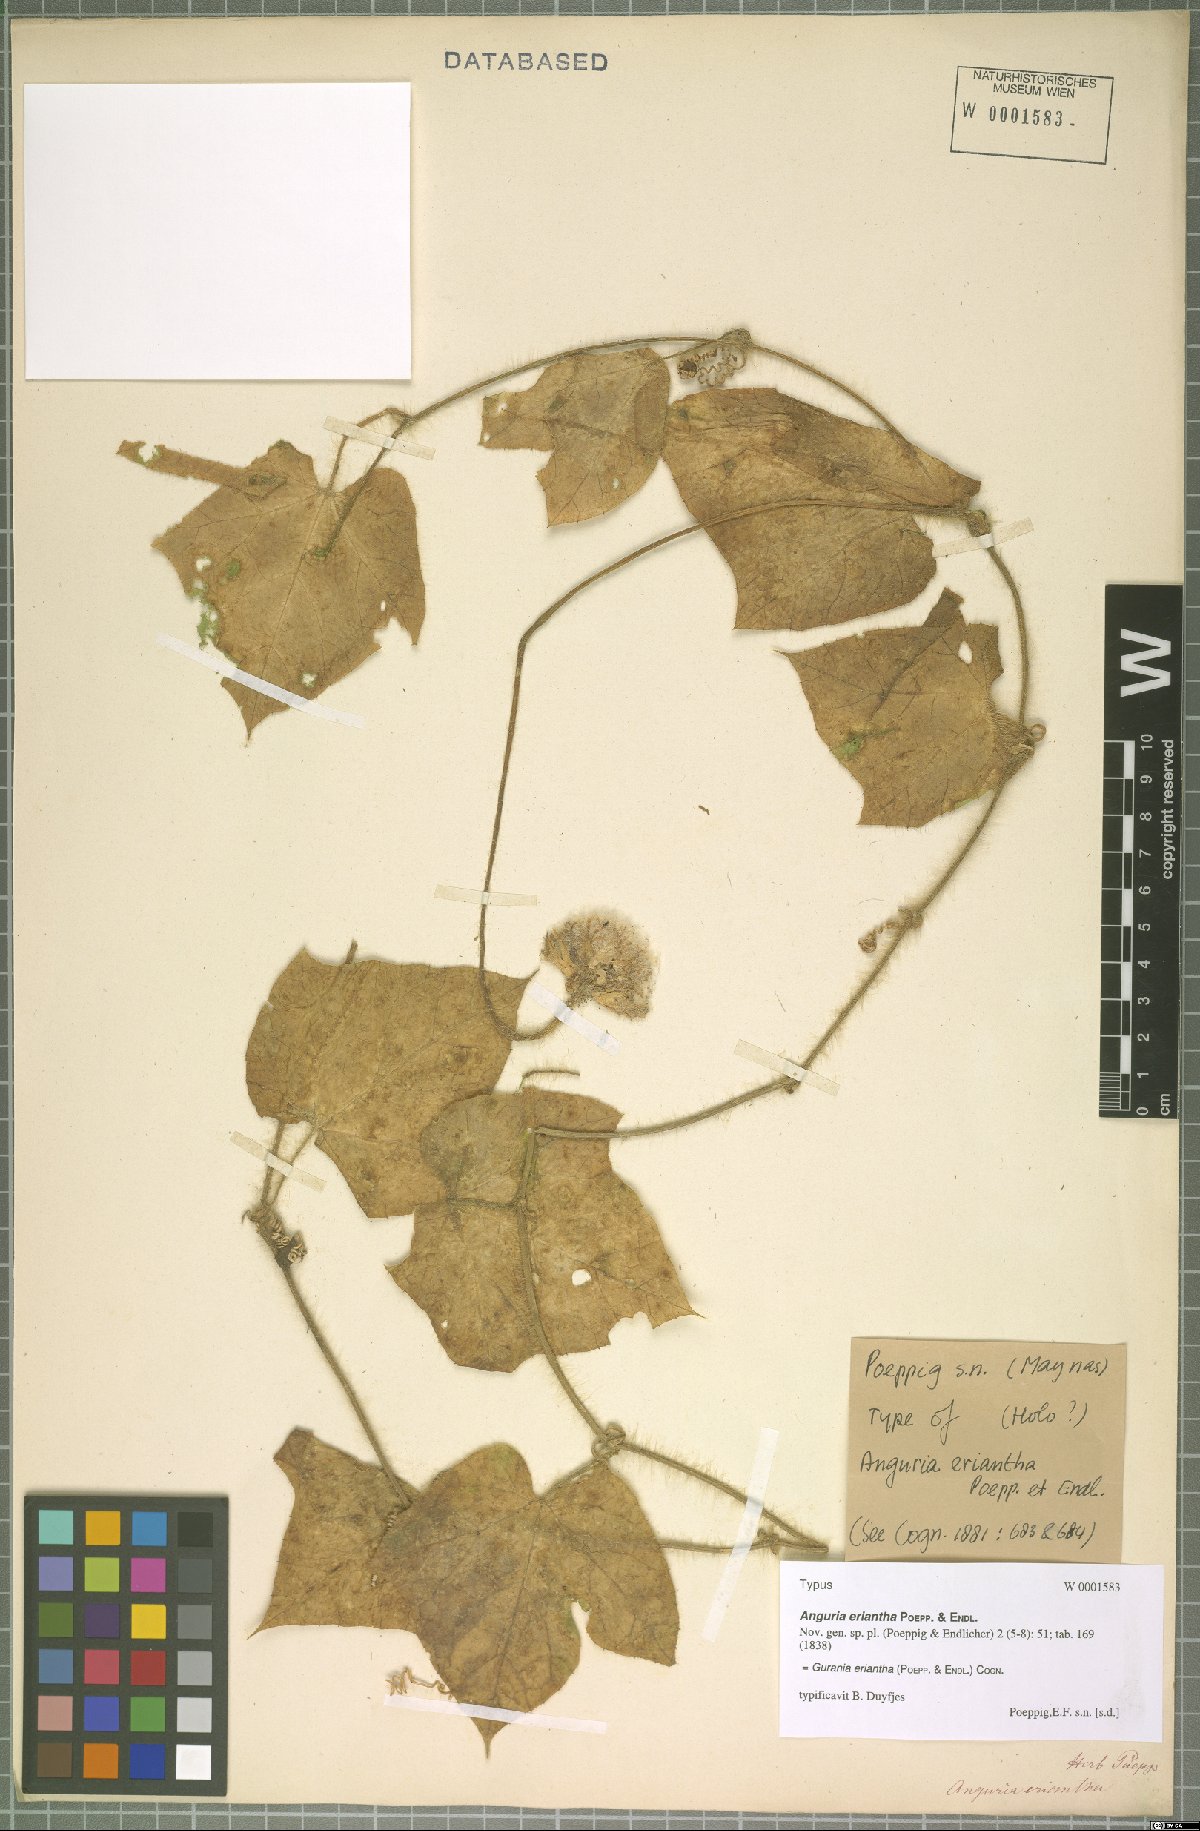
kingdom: Plantae
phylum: Tracheophyta
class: Magnoliopsida
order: Cucurbitales
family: Cucurbitaceae
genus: Gurania
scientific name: Gurania eriantha
